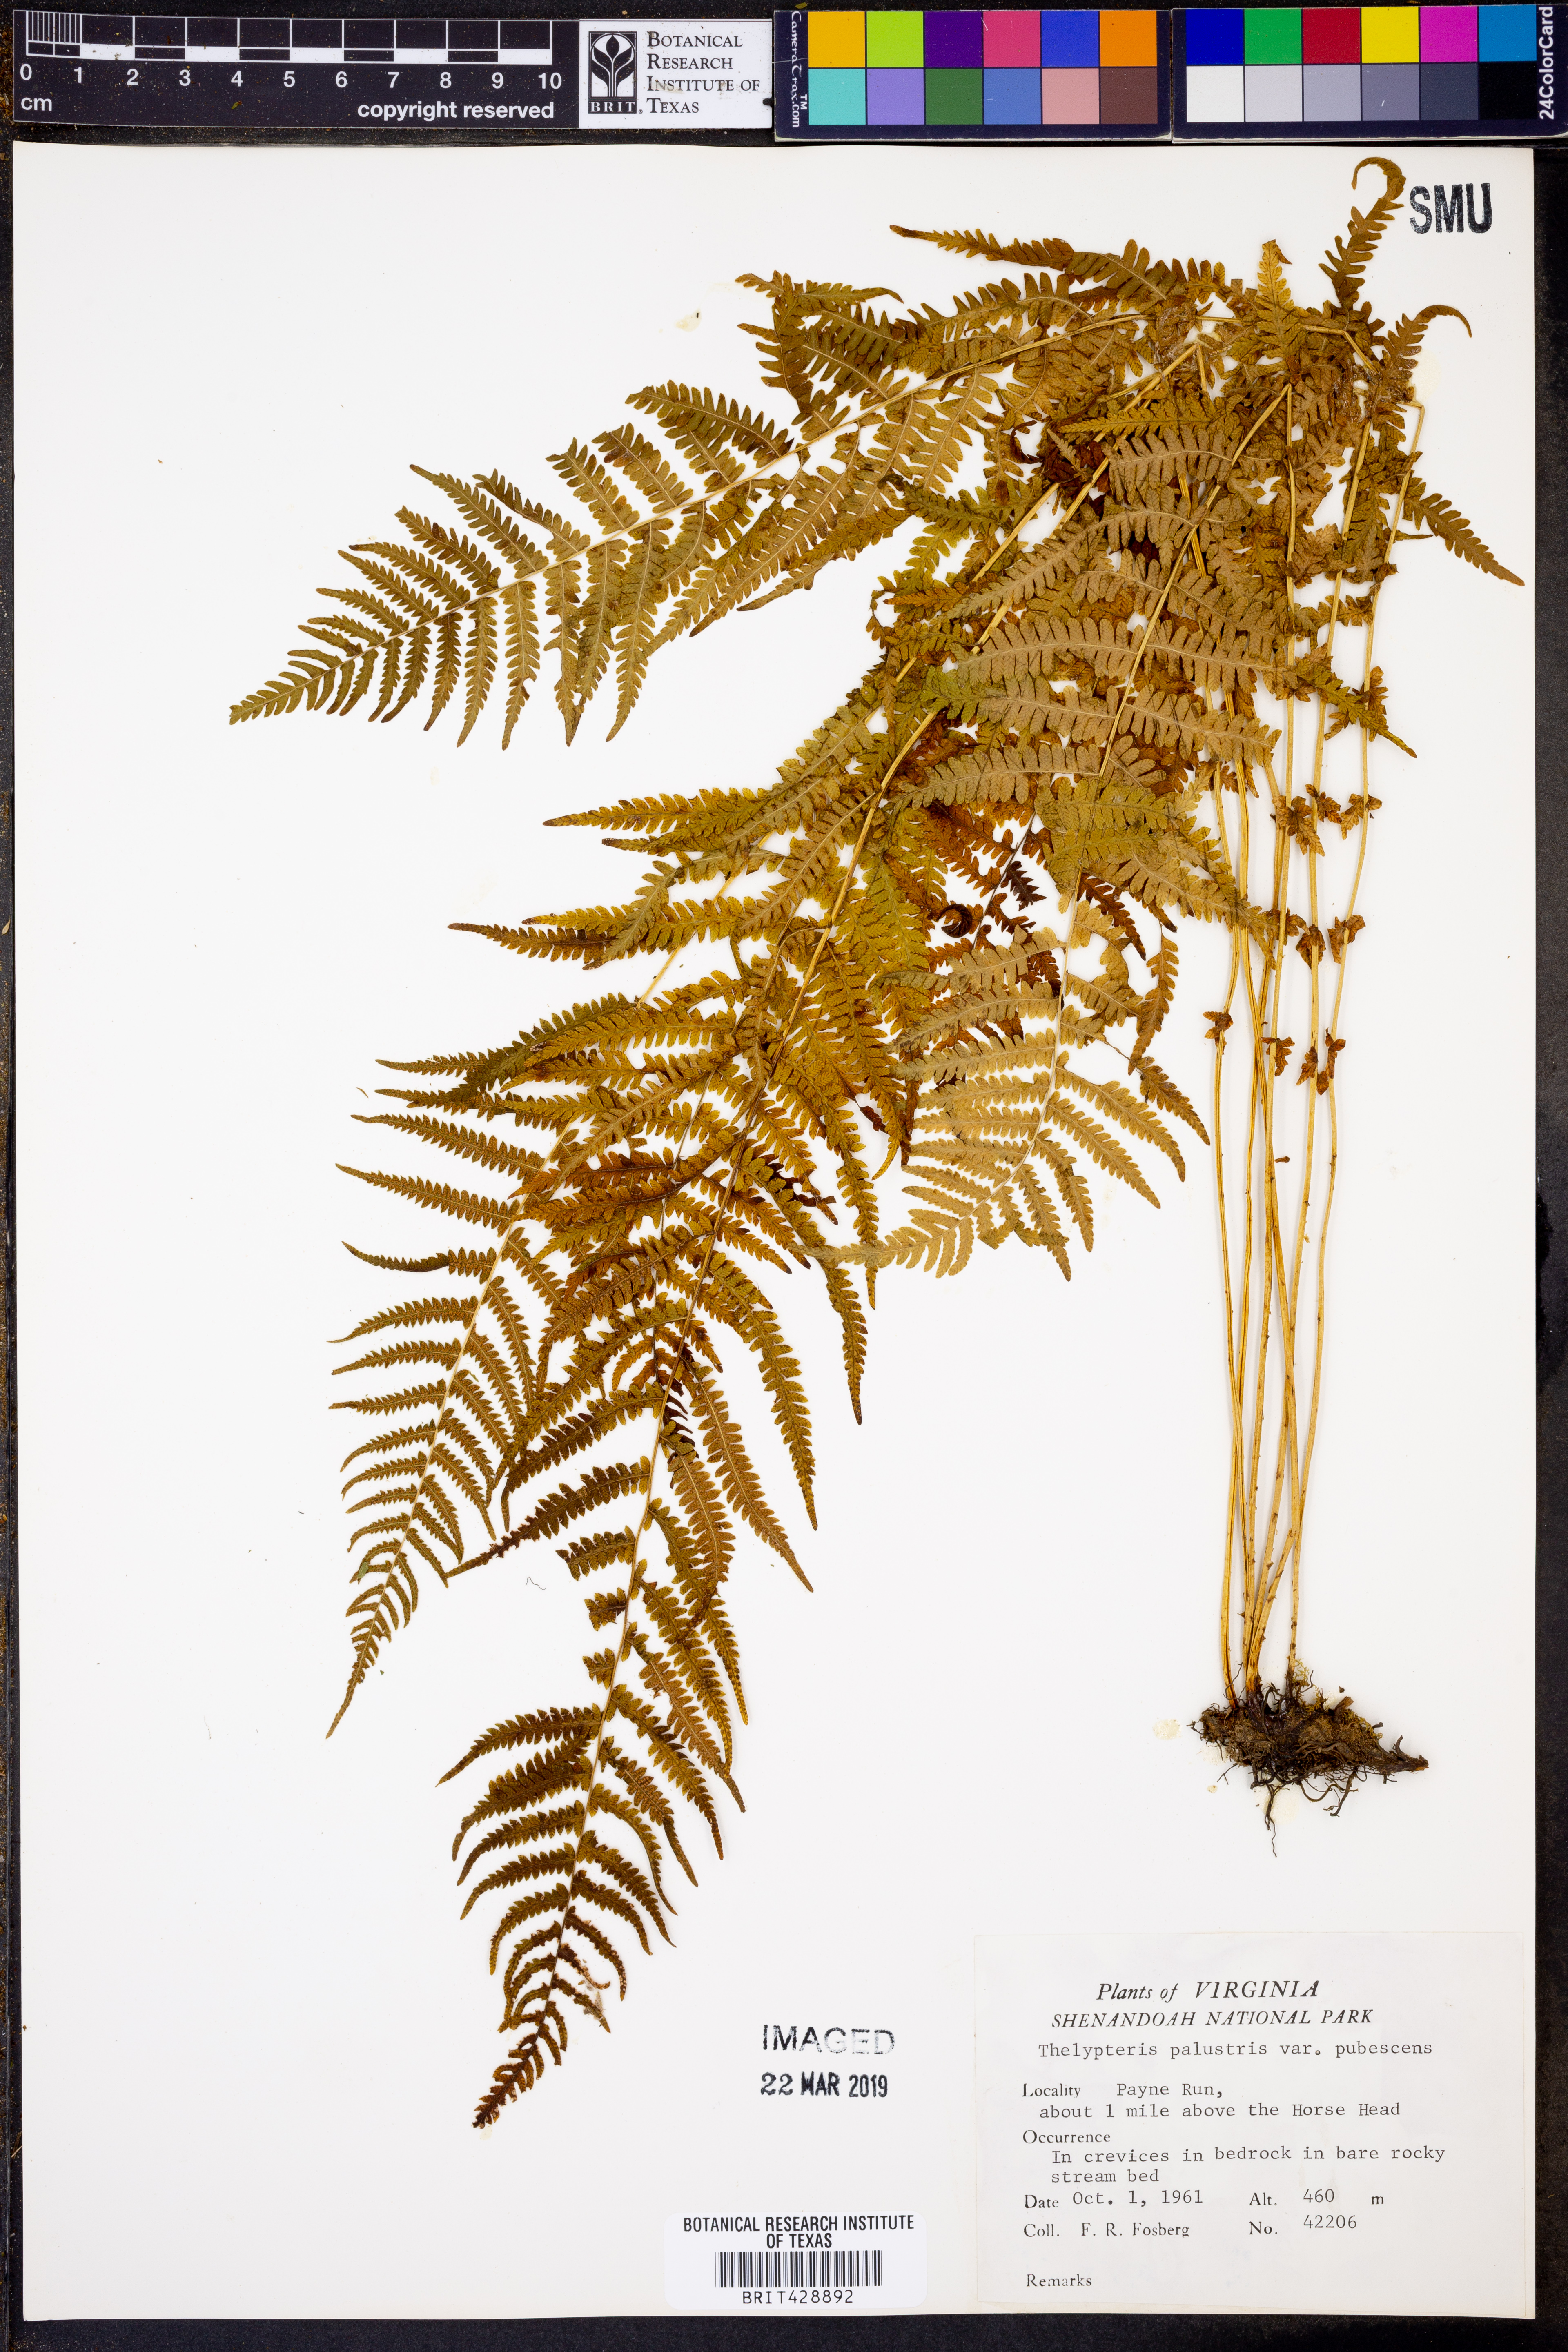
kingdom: Plantae
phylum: Tracheophyta
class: Polypodiopsida
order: Polypodiales
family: Thelypteridaceae
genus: Thelypteris
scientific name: Thelypteris palustris
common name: Marsh fern
